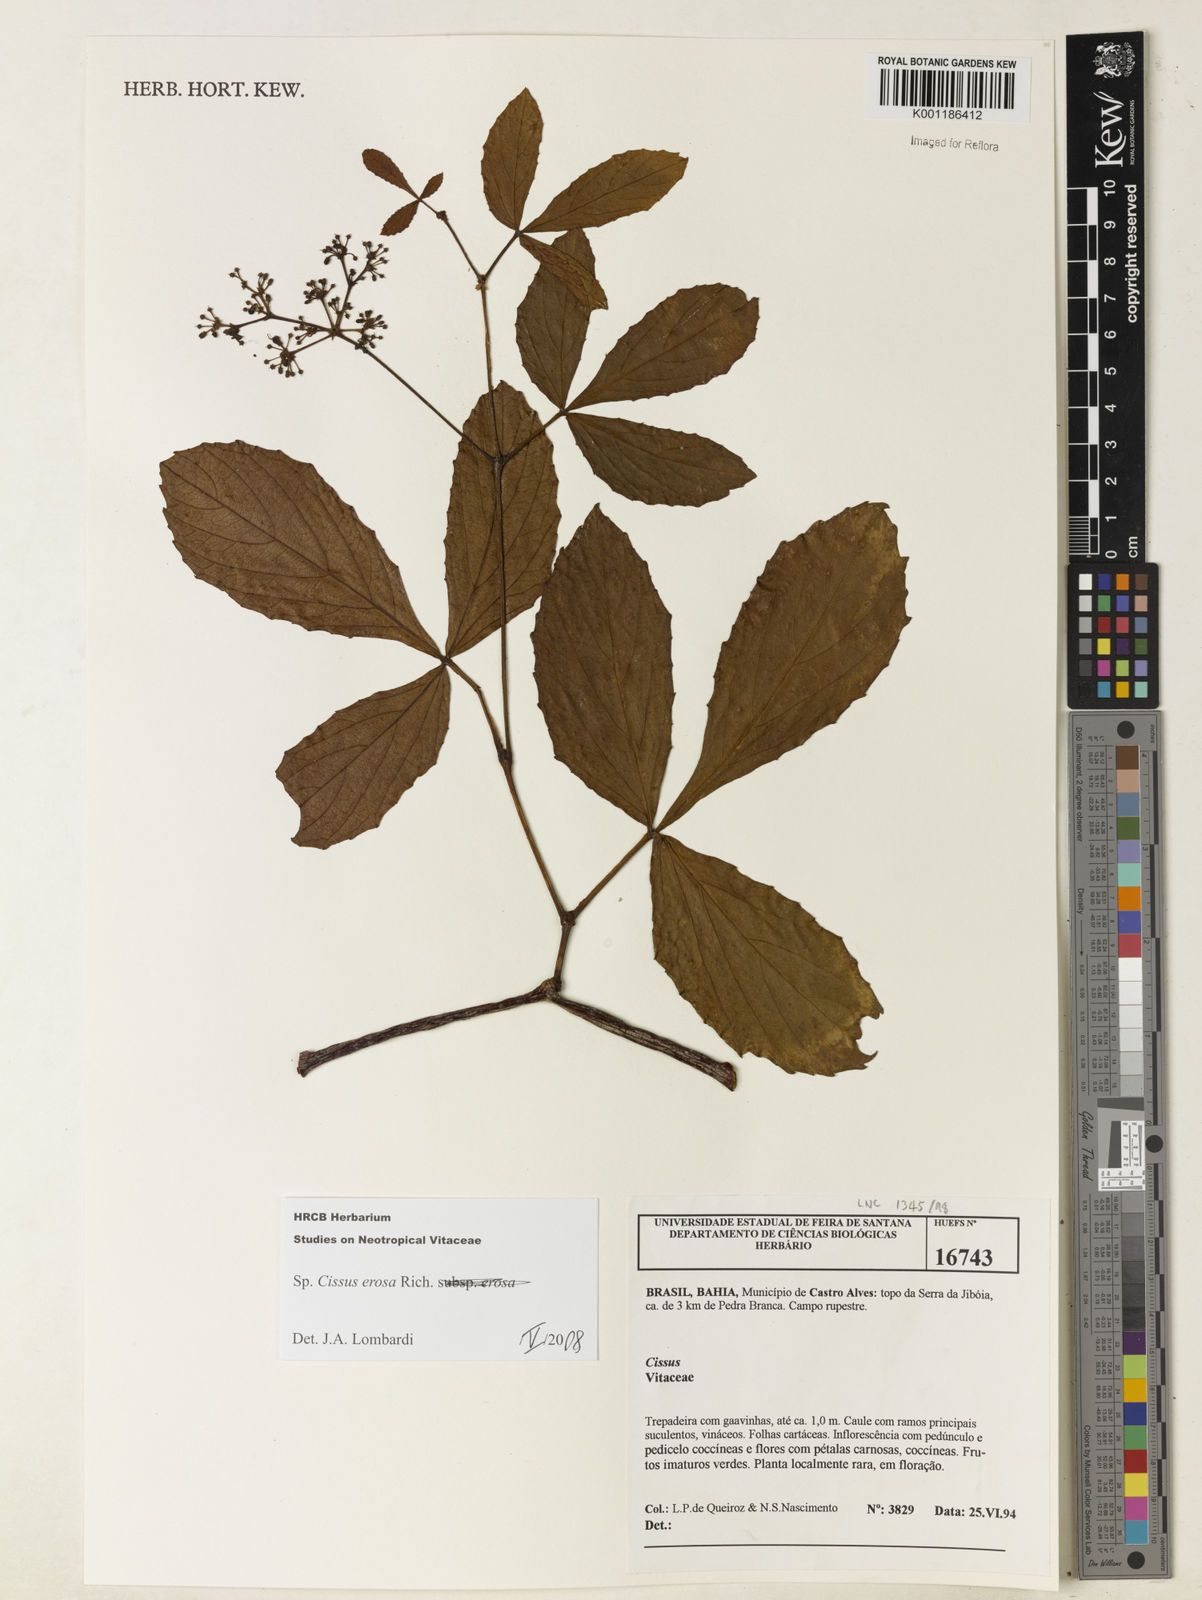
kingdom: Plantae
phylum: Tracheophyta
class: Magnoliopsida
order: Vitales
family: Vitaceae
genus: Cissus
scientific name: Cissus erosa
